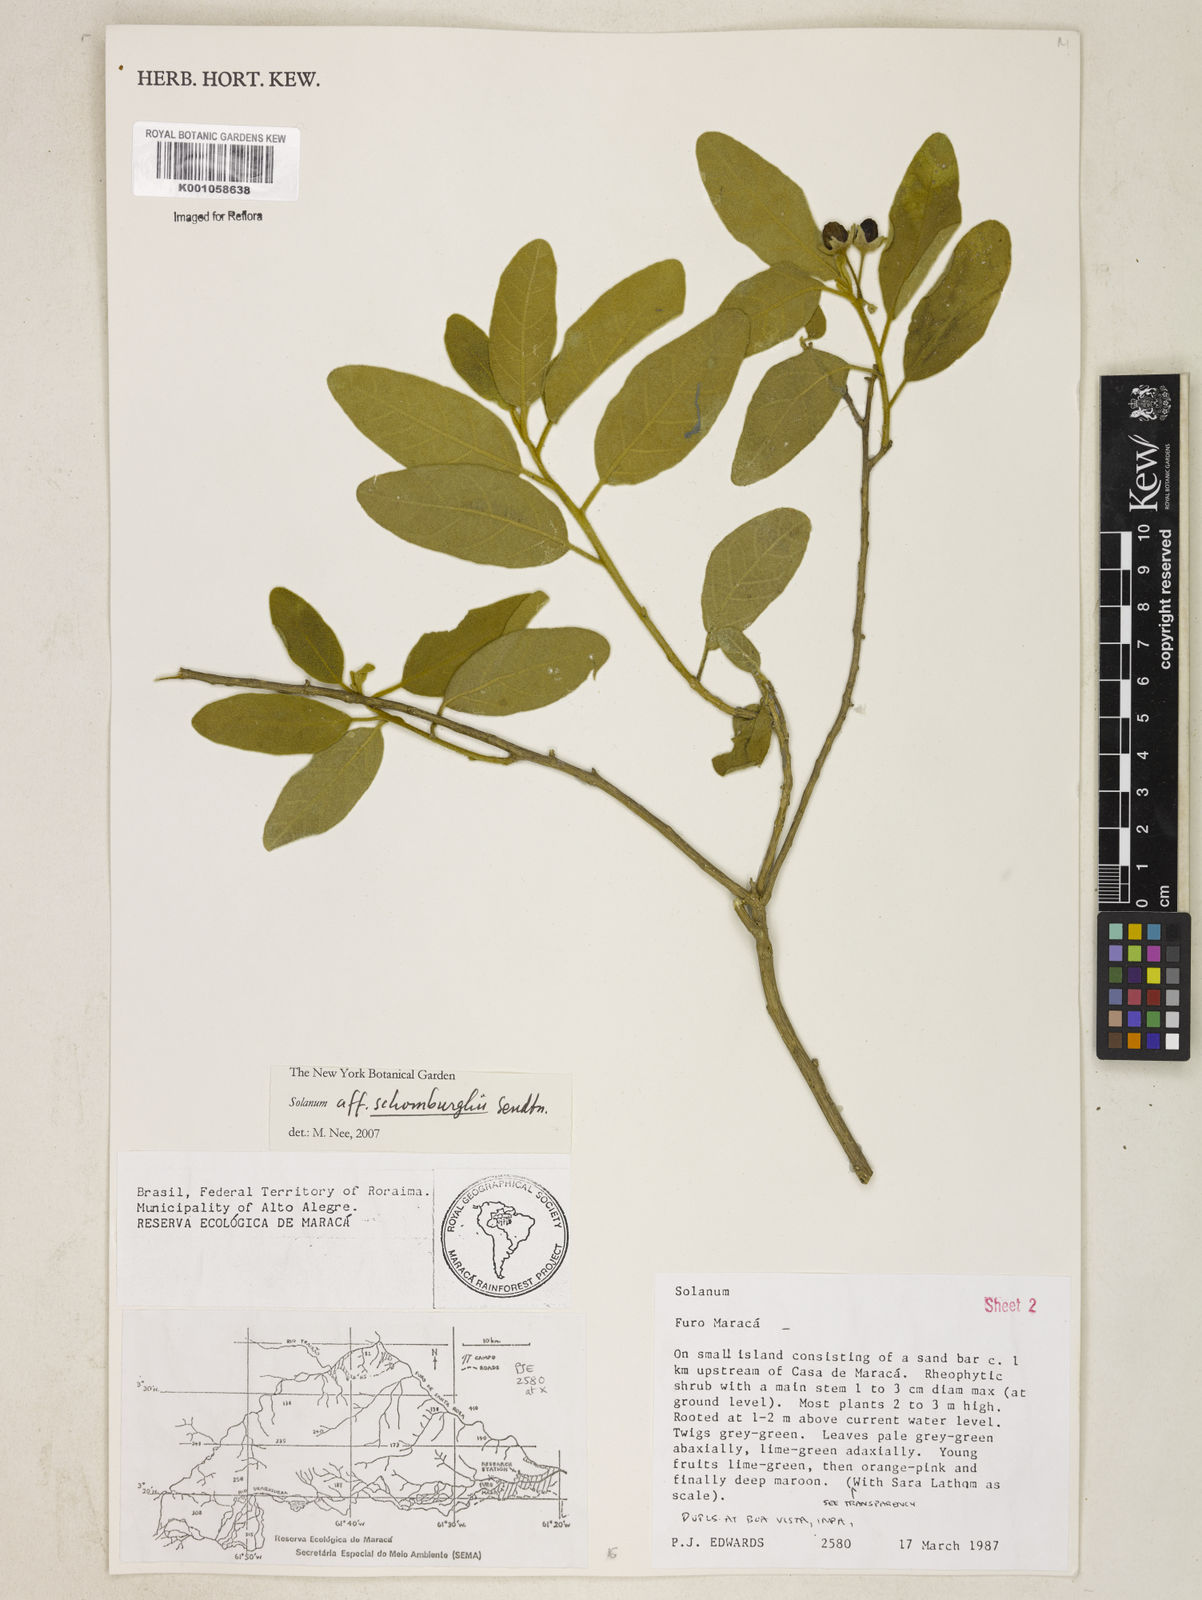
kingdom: Plantae
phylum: Tracheophyta
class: Magnoliopsida
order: Solanales
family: Solanaceae
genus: Solanum
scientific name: Solanum
